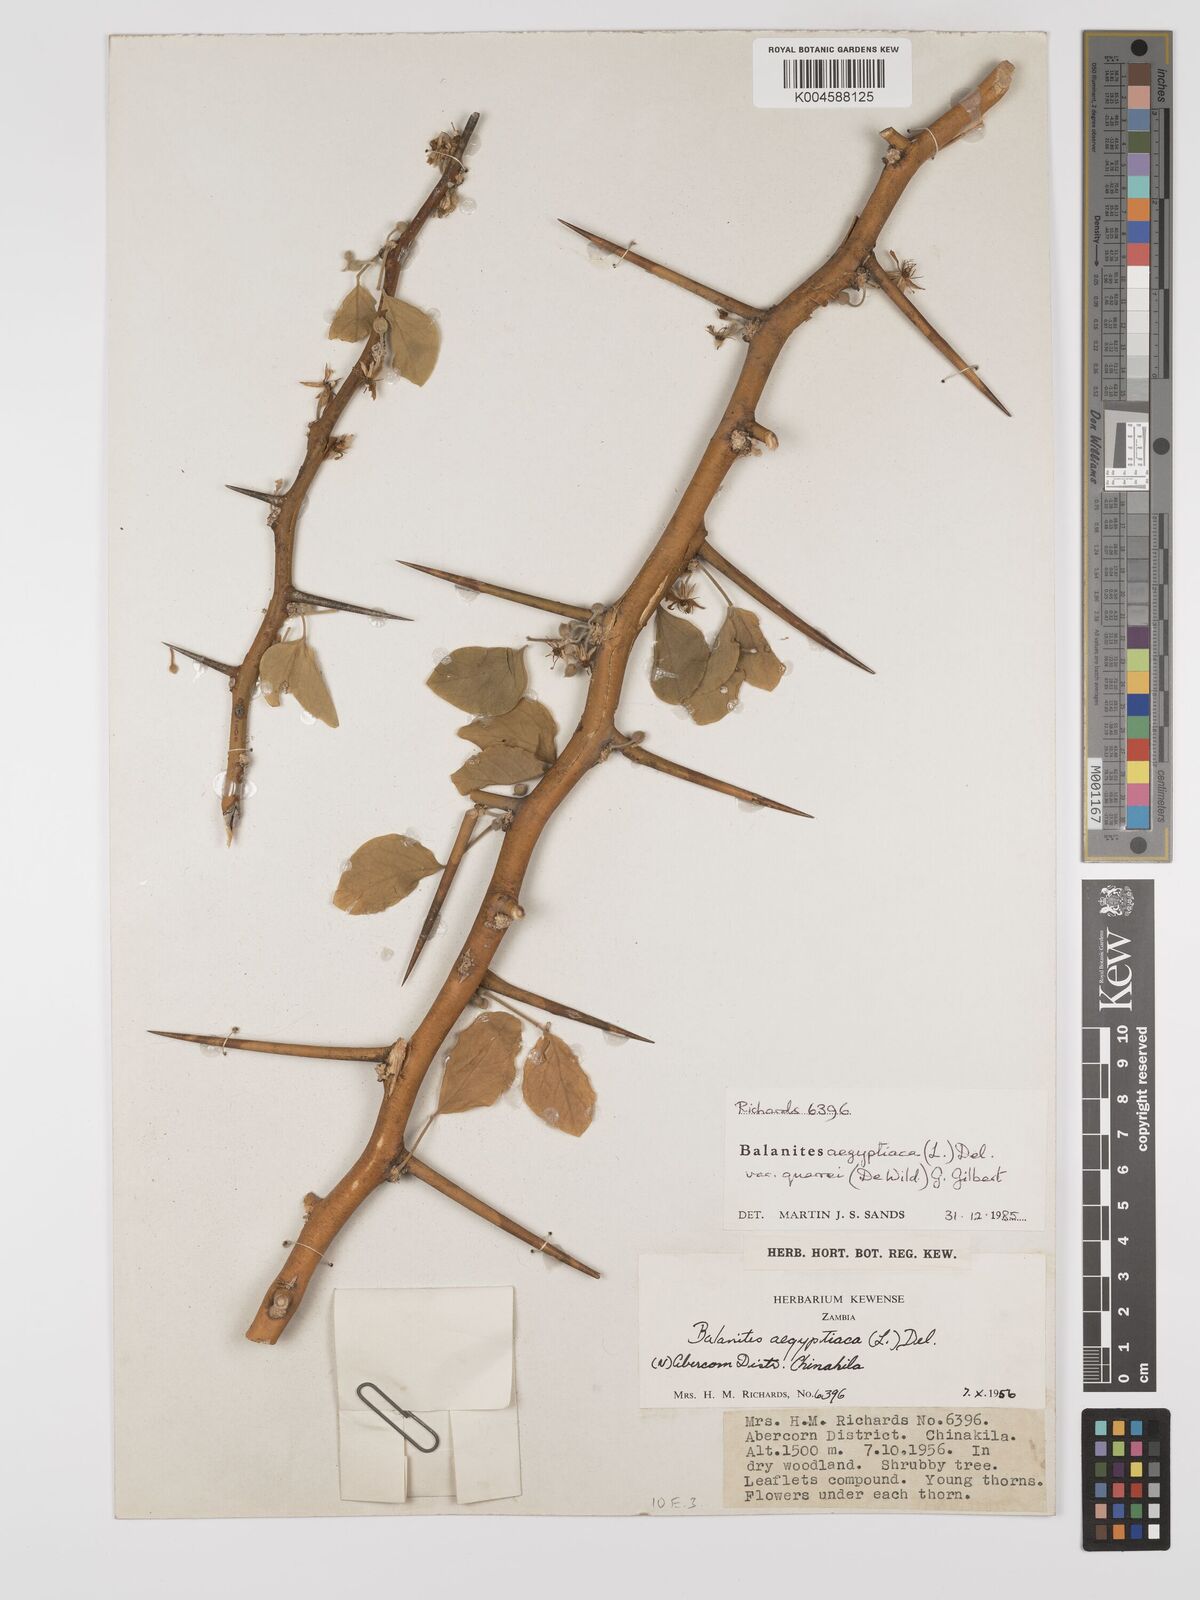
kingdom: Plantae
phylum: Tracheophyta
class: Magnoliopsida
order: Zygophyllales
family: Zygophyllaceae
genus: Balanites
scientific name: Balanites aegyptiaca
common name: Balanites
